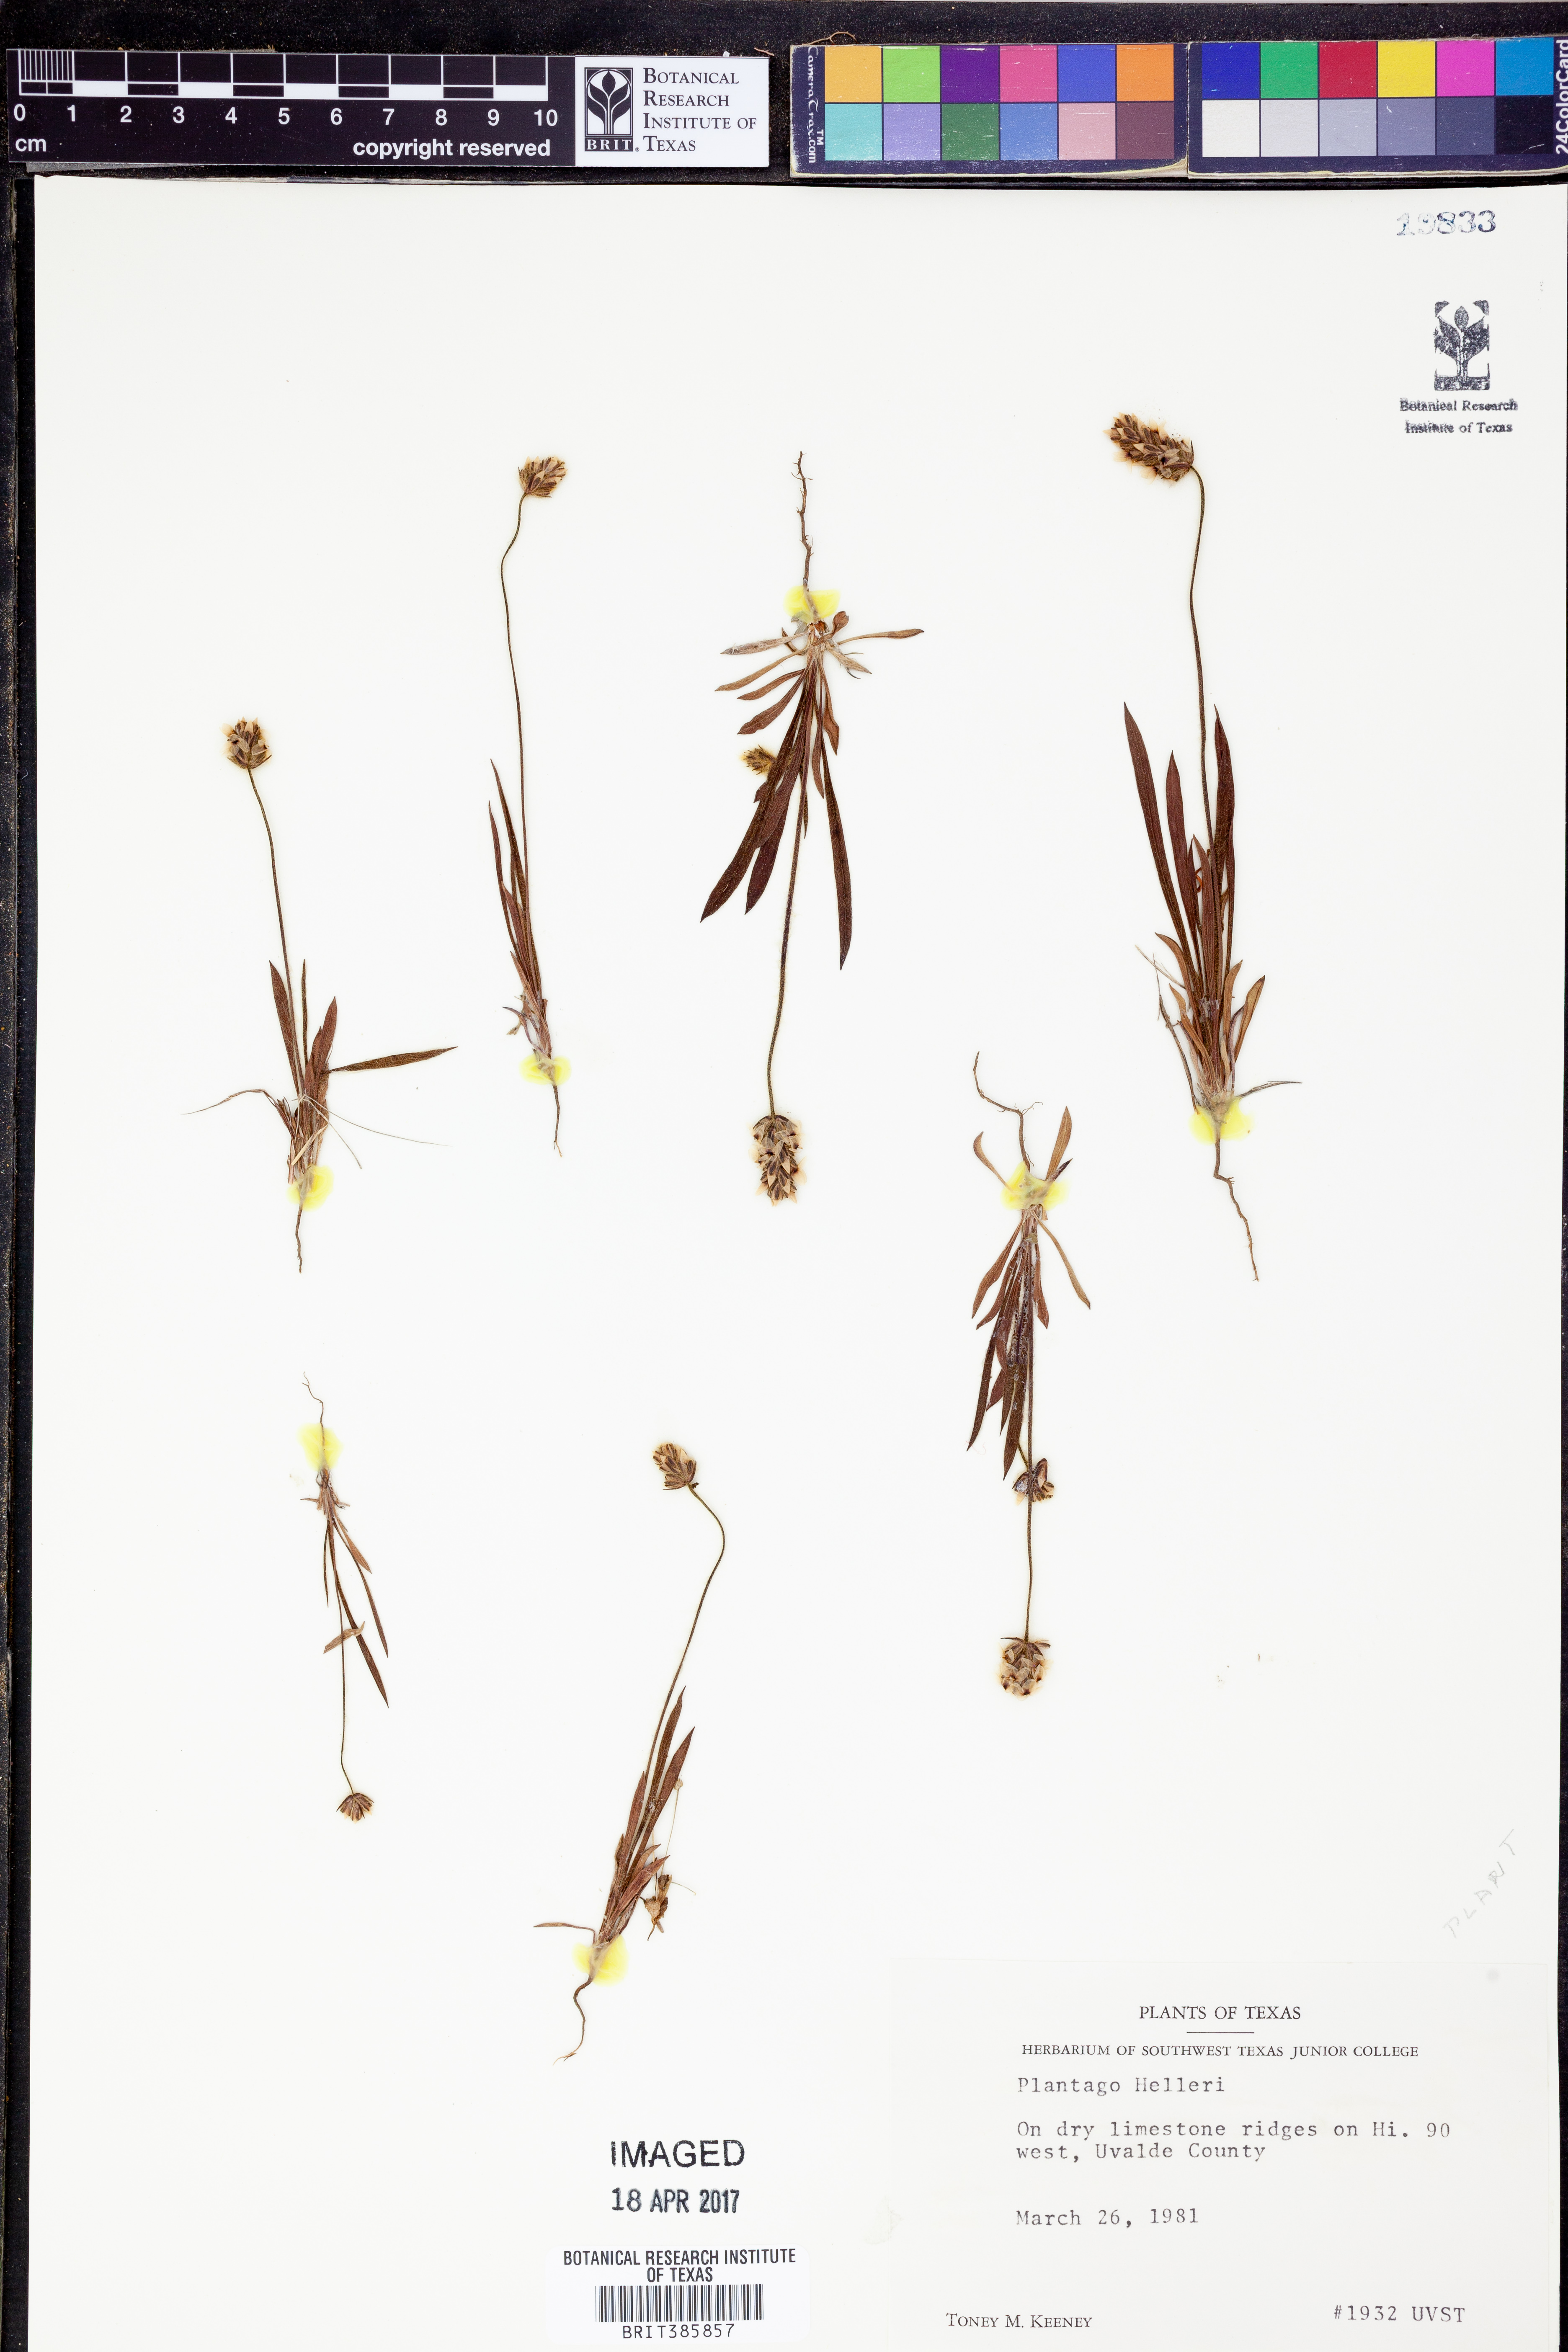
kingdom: Plantae
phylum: Tracheophyta
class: Magnoliopsida
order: Lamiales
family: Plantaginaceae
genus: Plantago
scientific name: Plantago helleri
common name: Heller's plantain
